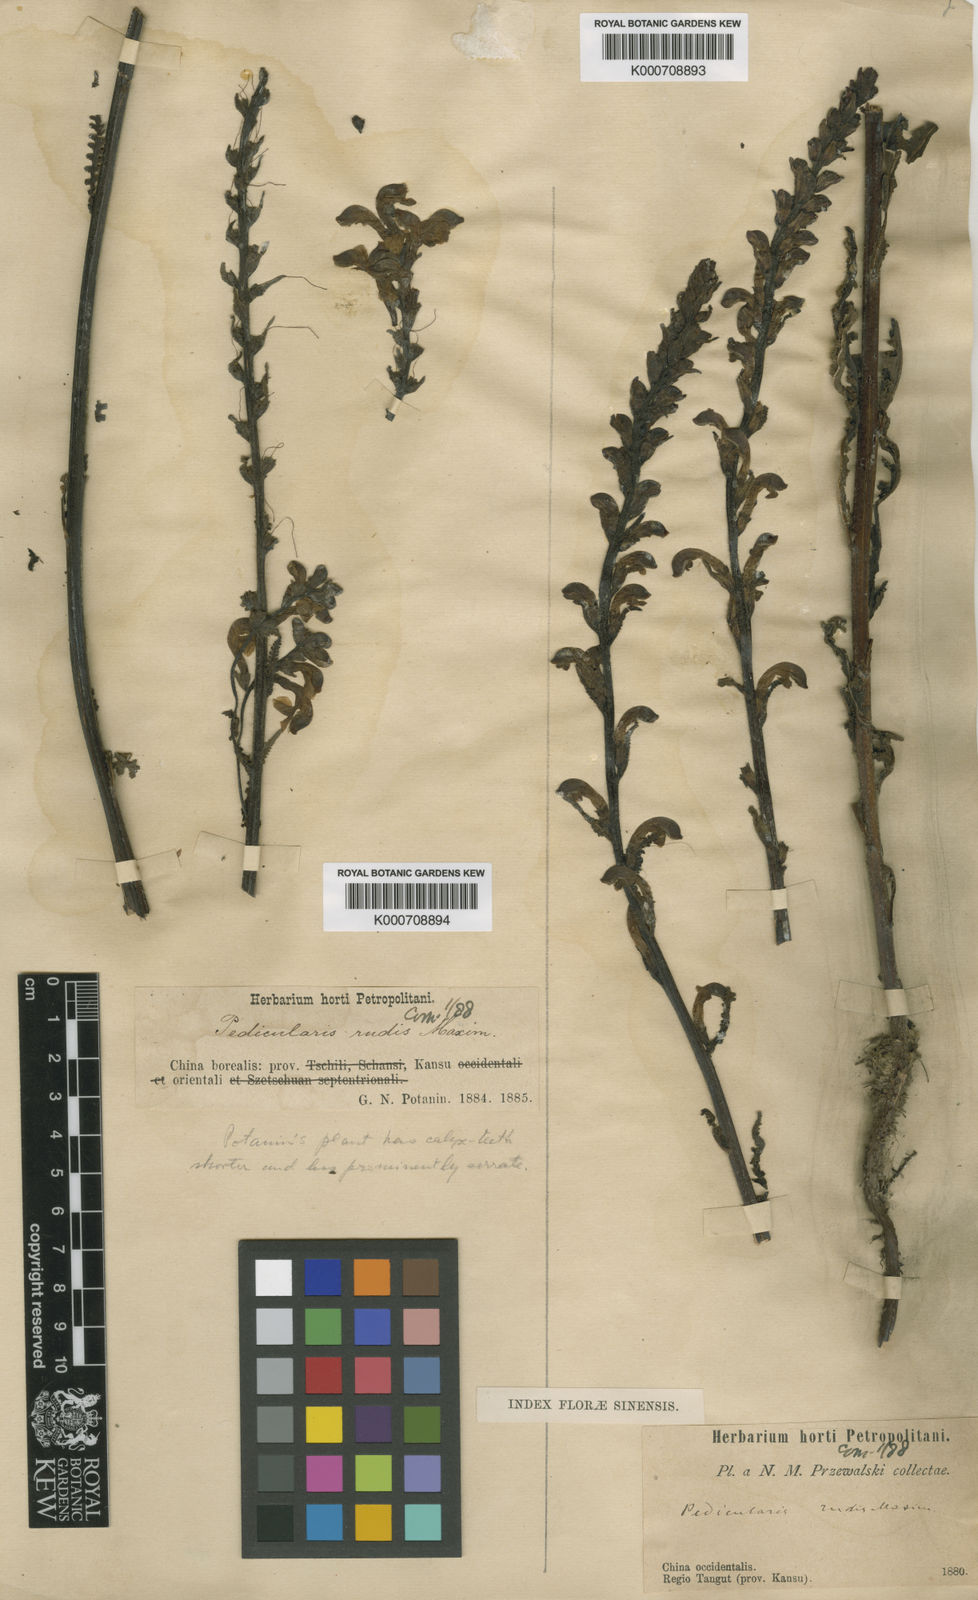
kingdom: Plantae
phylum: Tracheophyta
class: Magnoliopsida
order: Lamiales
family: Orobanchaceae
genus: Pedicularis
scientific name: Pedicularis rudis
